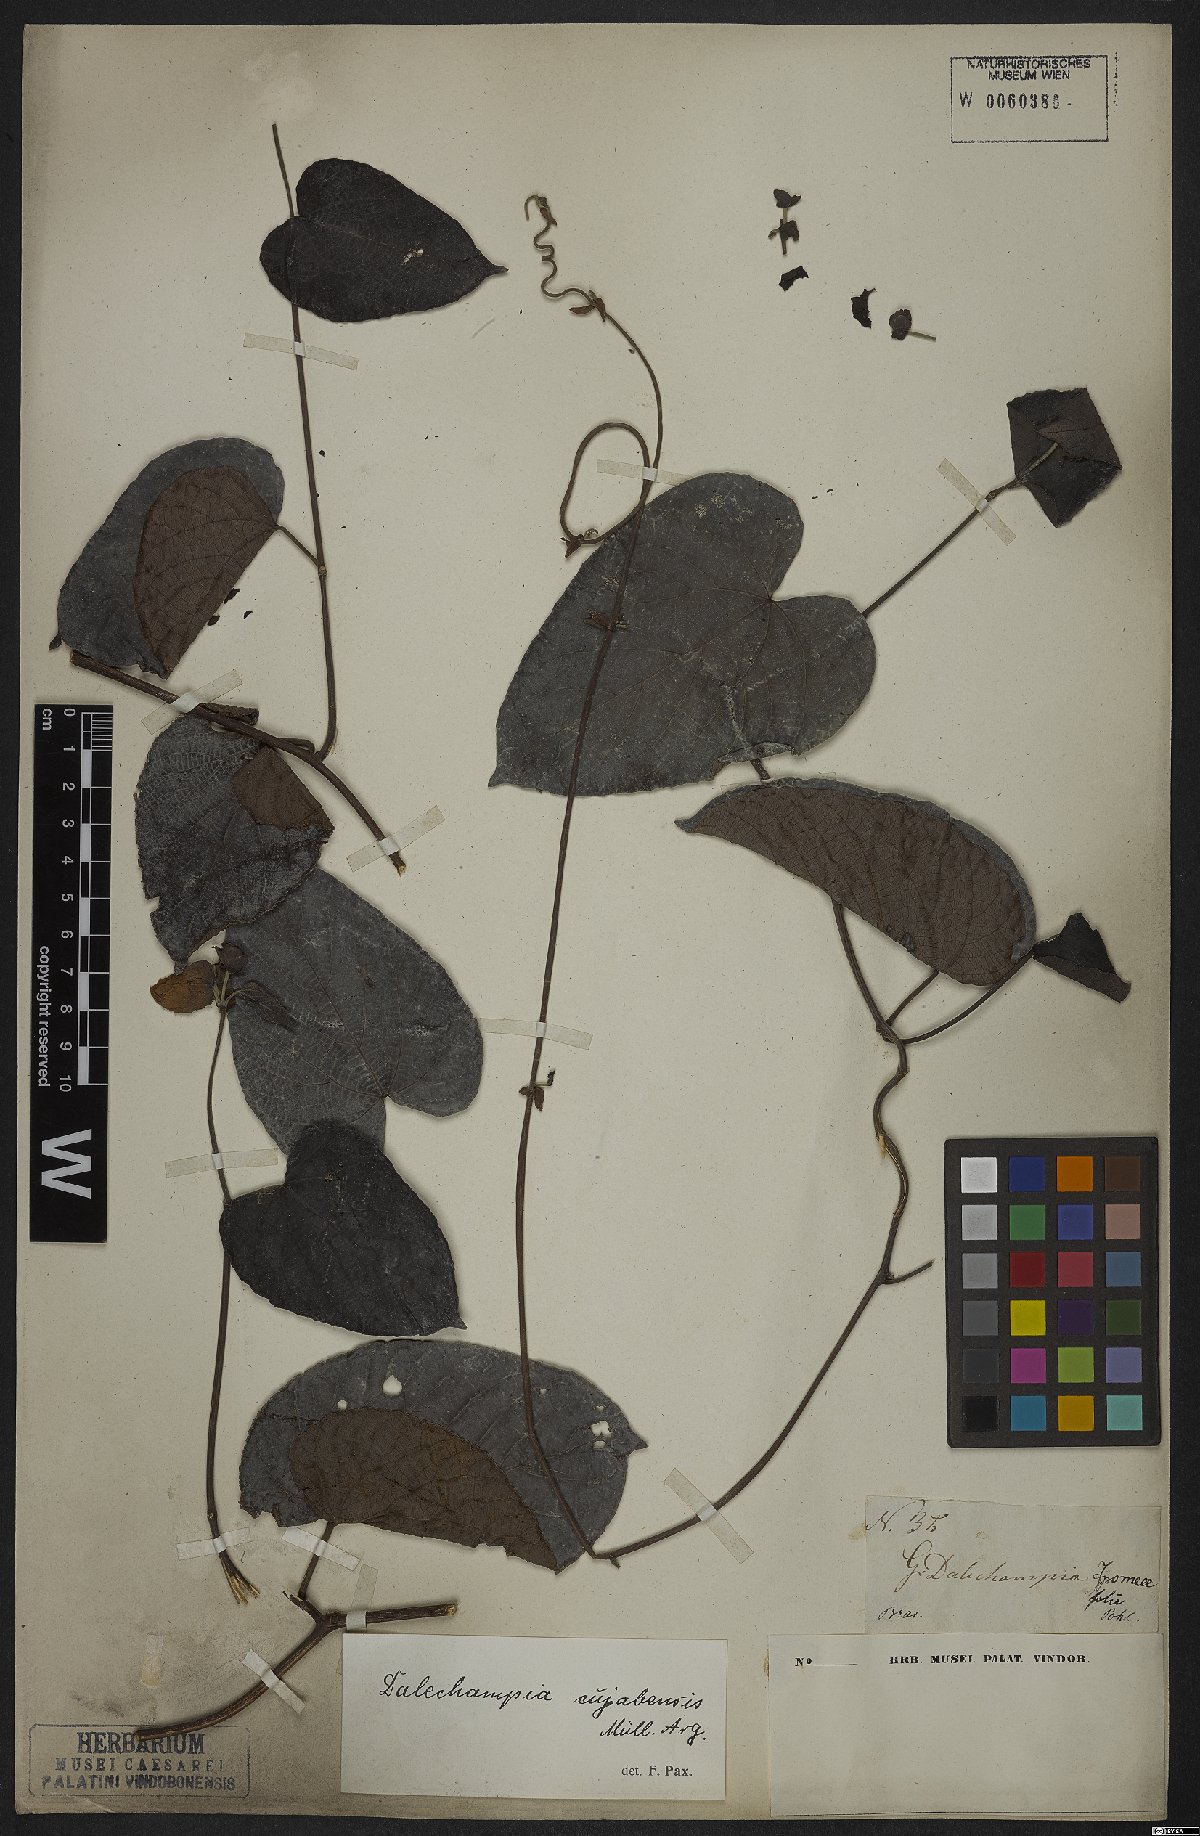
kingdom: Plantae
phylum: Tracheophyta
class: Magnoliopsida
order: Malpighiales
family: Euphorbiaceae
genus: Dalechampia
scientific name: Dalechampia cuyabensis
